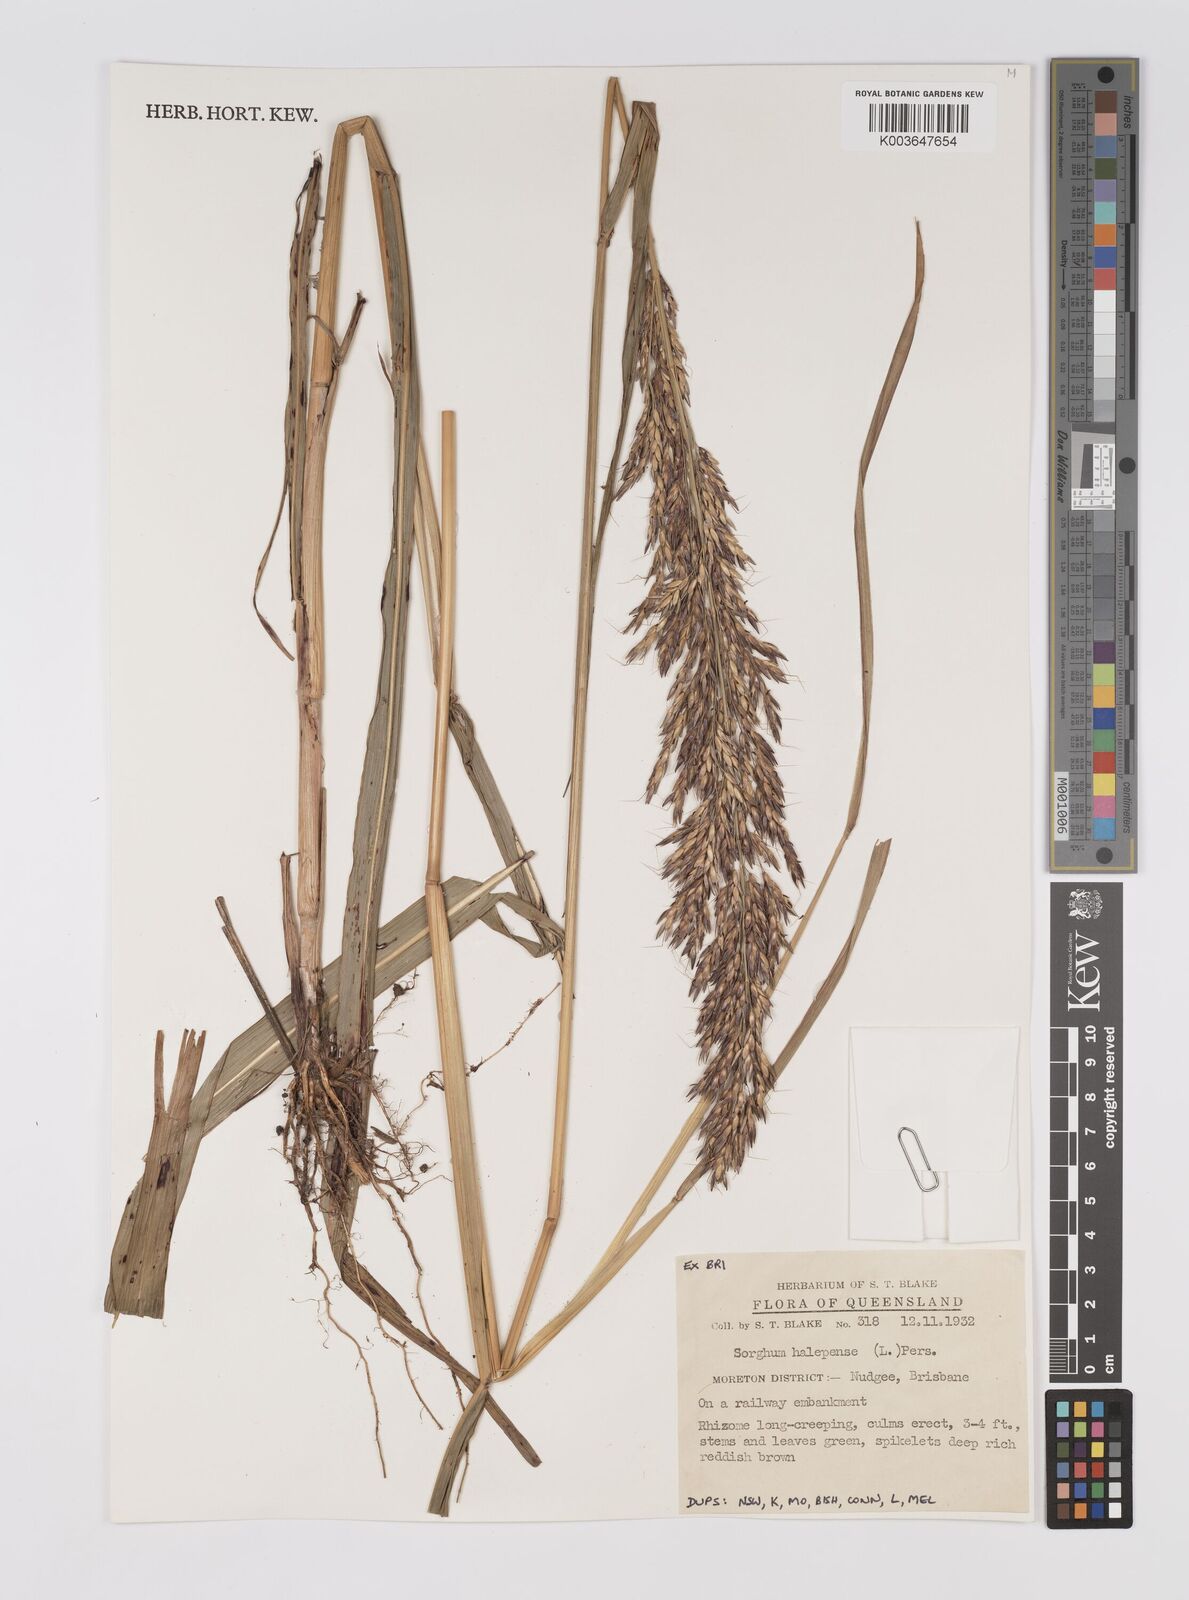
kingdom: Plantae
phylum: Tracheophyta
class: Liliopsida
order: Poales
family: Poaceae
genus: Sorghum
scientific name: Sorghum halepense
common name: Johnson-grass
